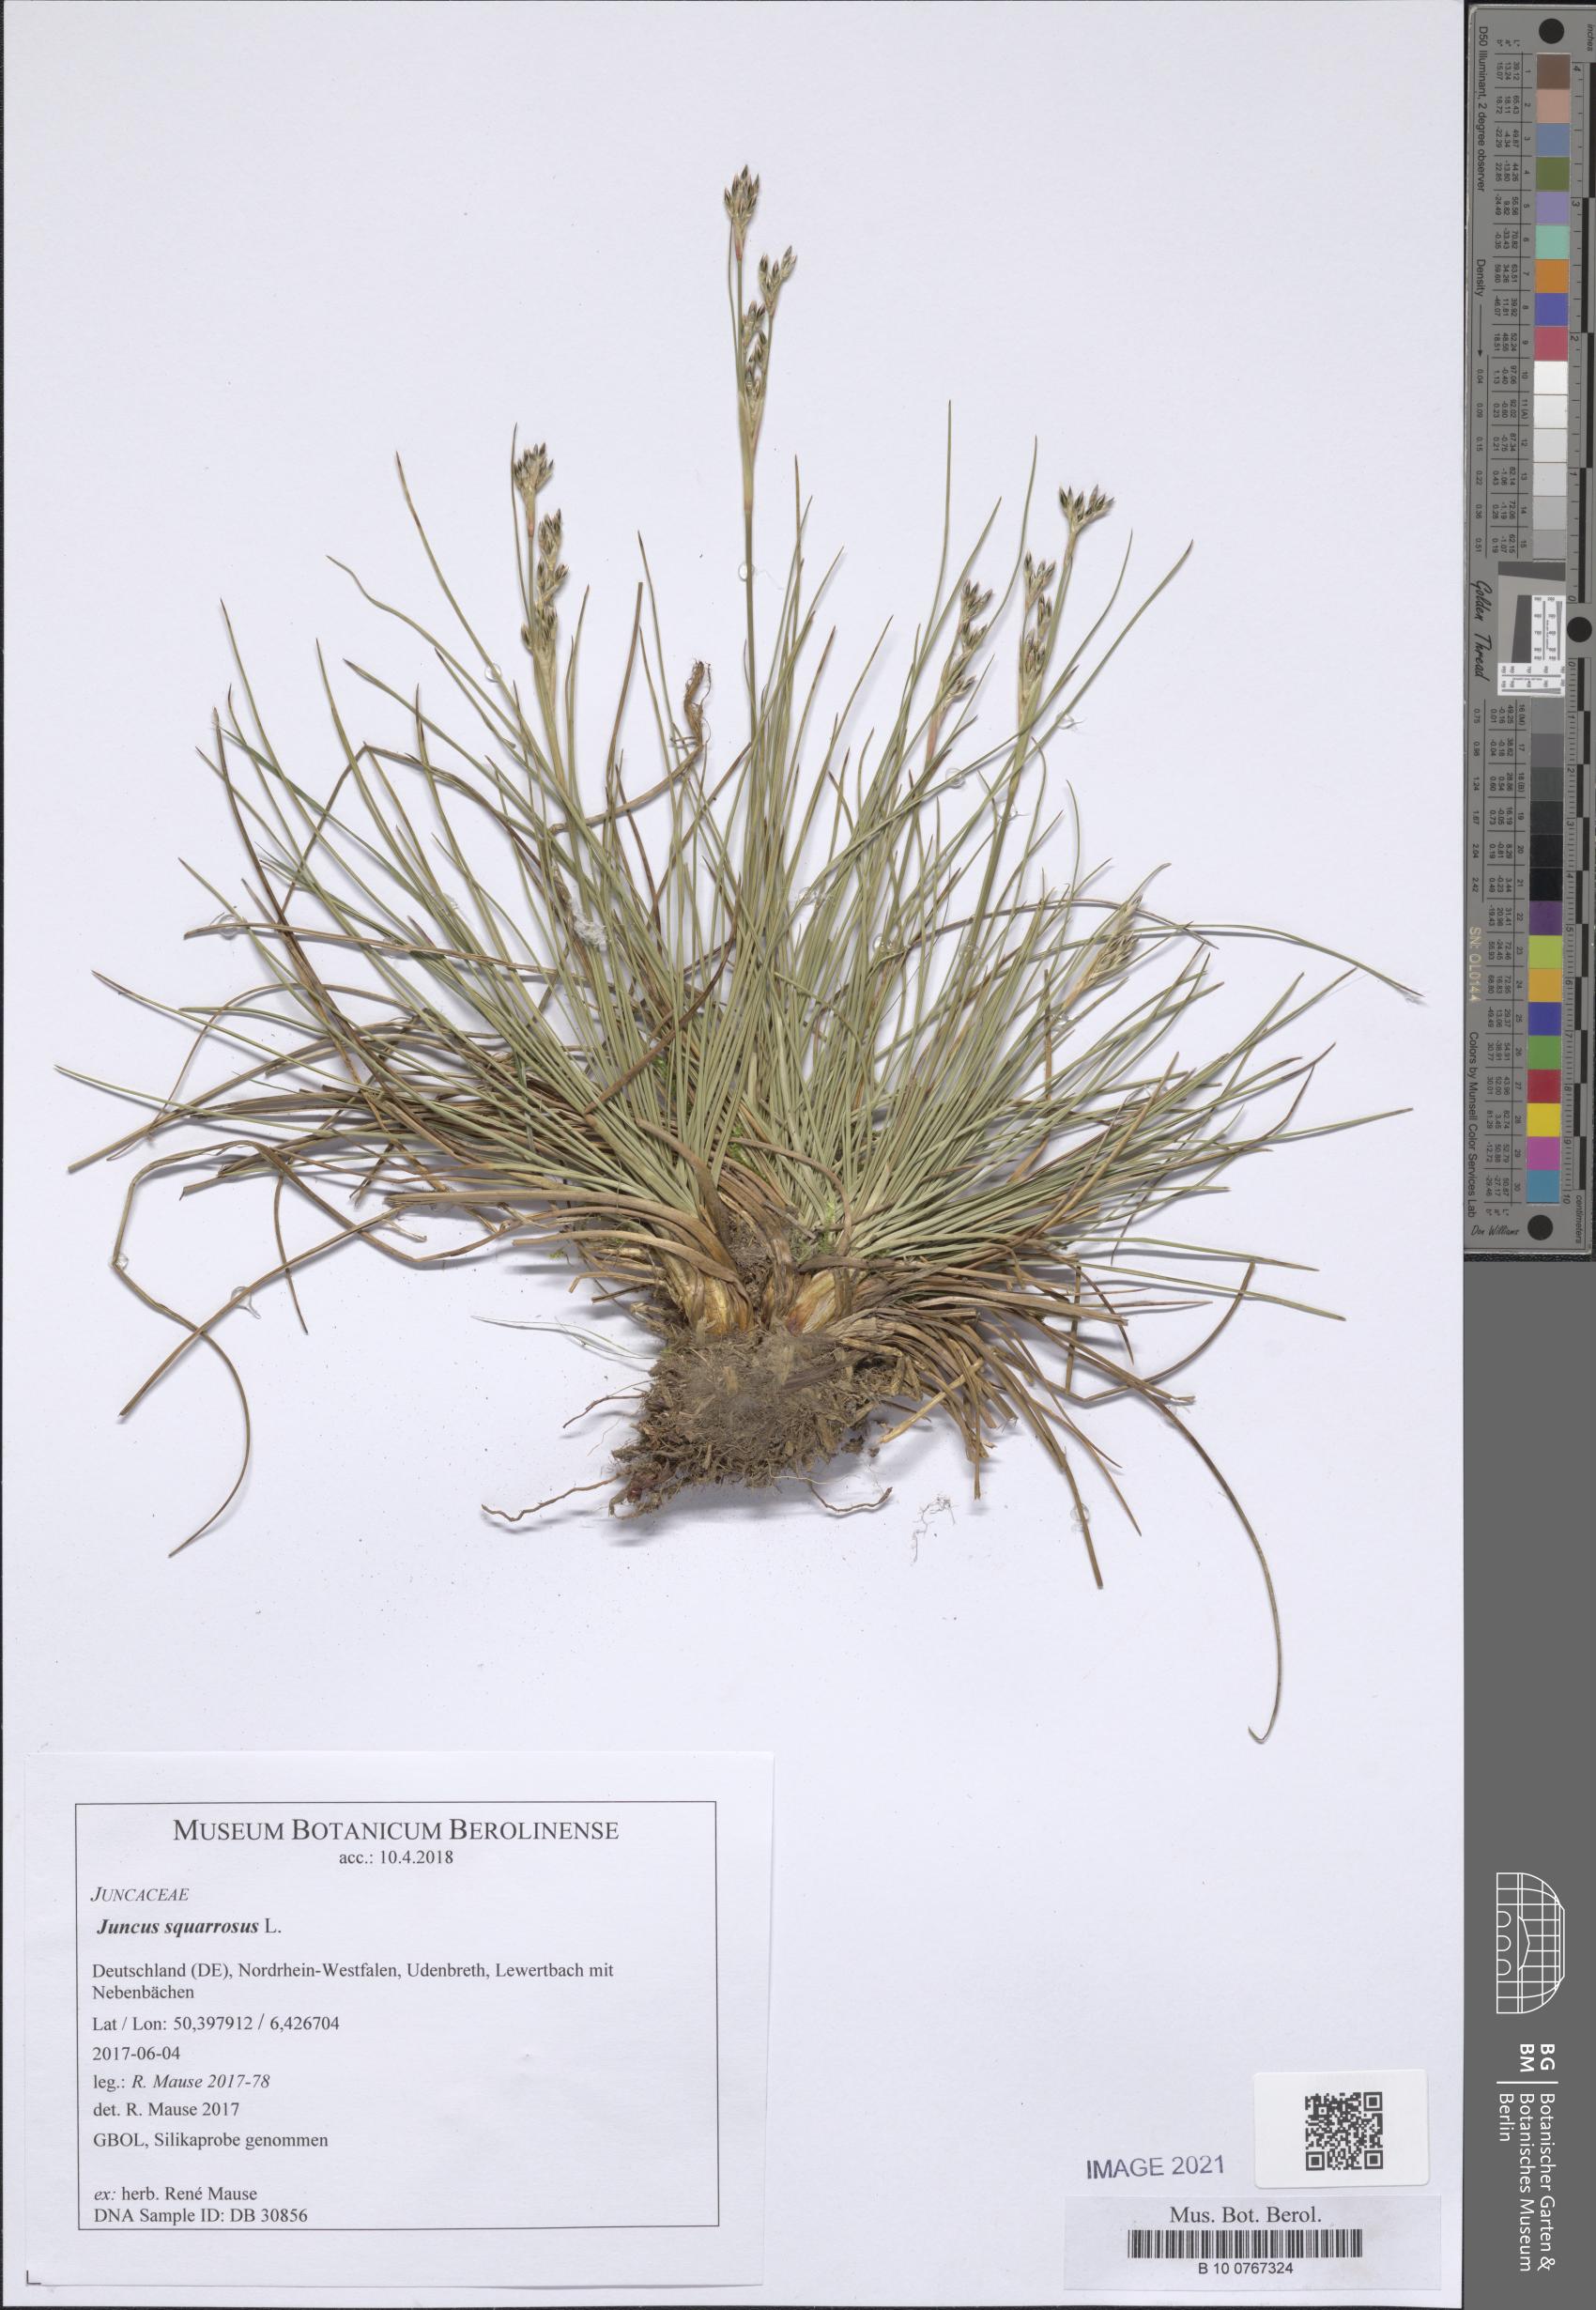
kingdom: Plantae
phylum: Tracheophyta
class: Liliopsida
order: Poales
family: Juncaceae
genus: Juncus
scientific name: Juncus squarrosus
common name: Heath rush
